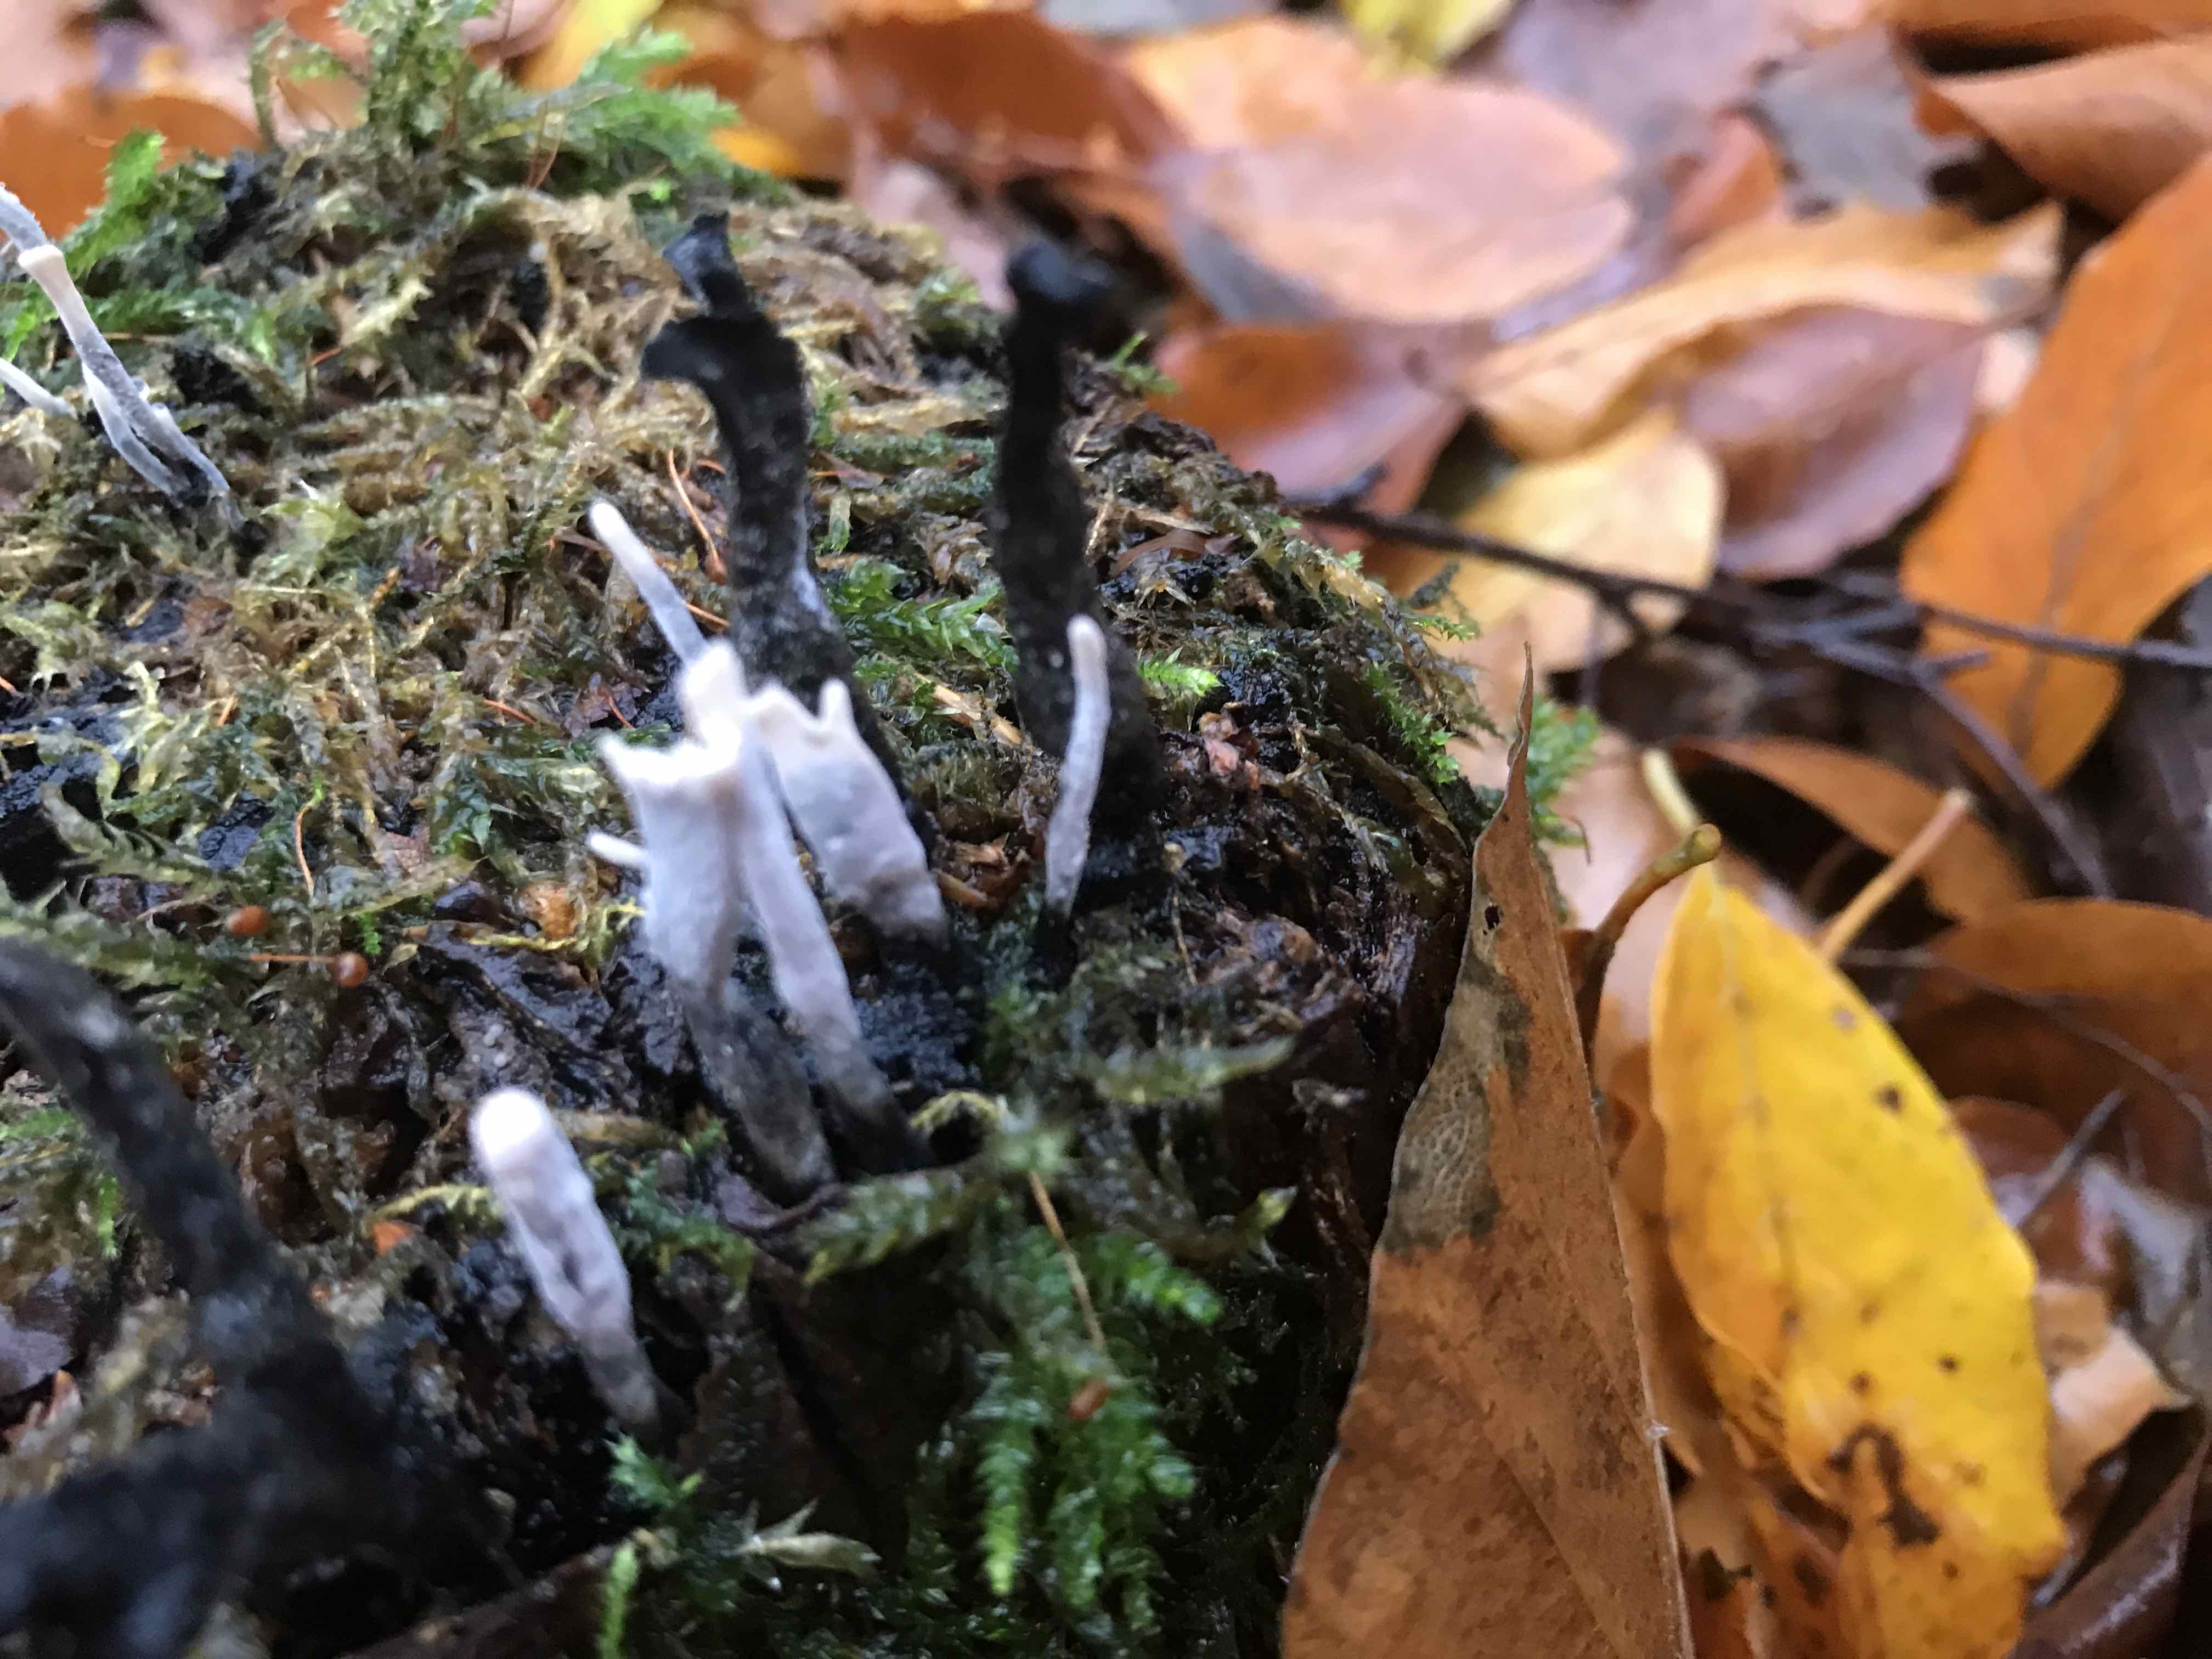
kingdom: Fungi
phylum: Ascomycota
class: Sordariomycetes
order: Xylariales
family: Xylariaceae
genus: Xylaria
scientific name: Xylaria hypoxylon
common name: grenet stødsvamp
